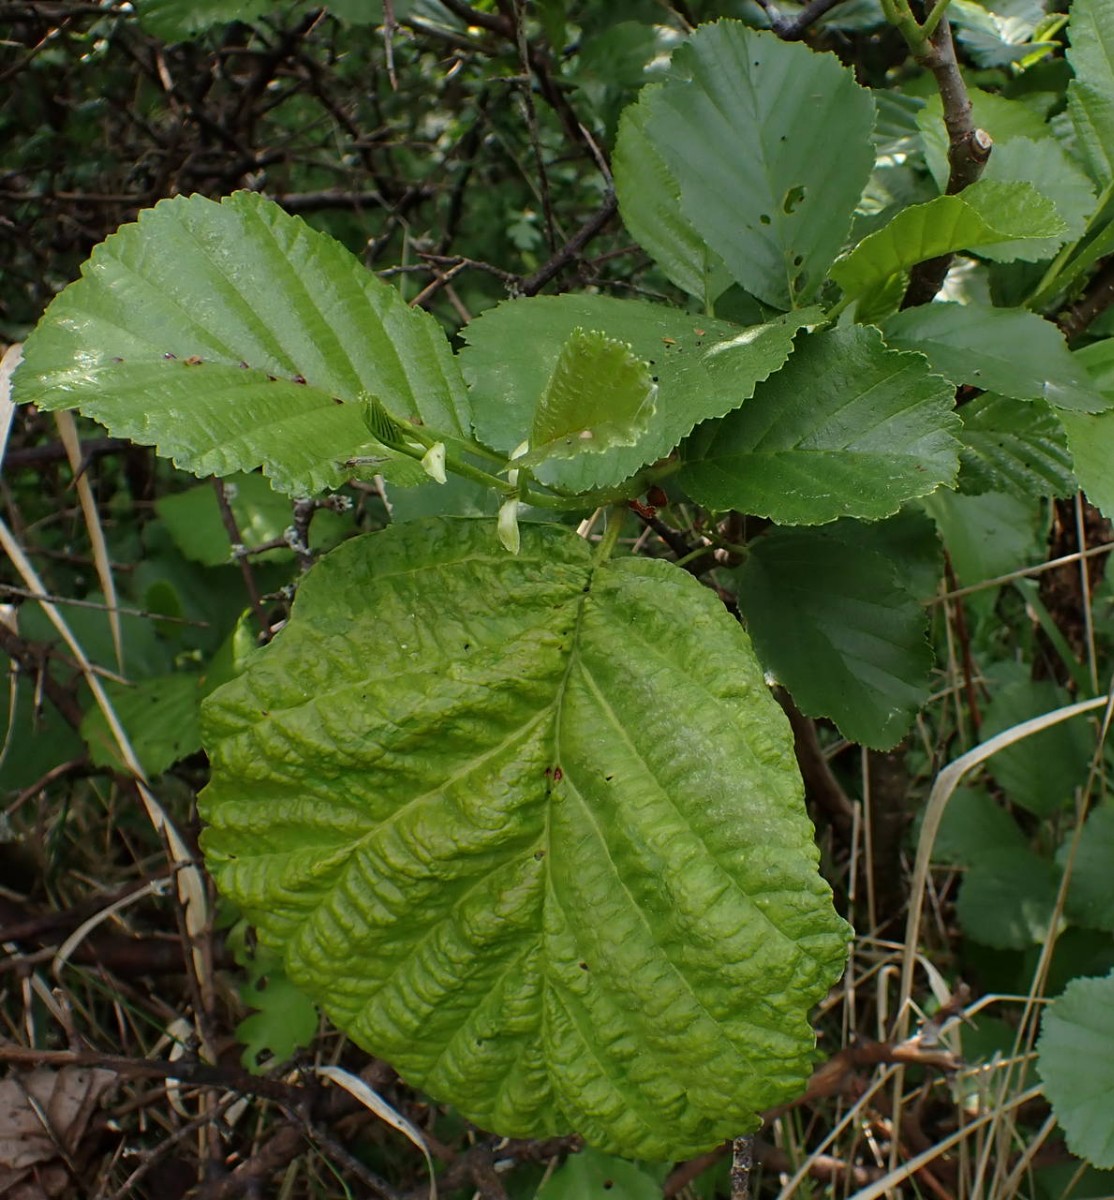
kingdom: Fungi
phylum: Ascomycota
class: Taphrinomycetes
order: Taphrinales
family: Taphrinaceae
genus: Taphrina
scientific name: Taphrina tosquinetii
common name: Alder wrinkle
